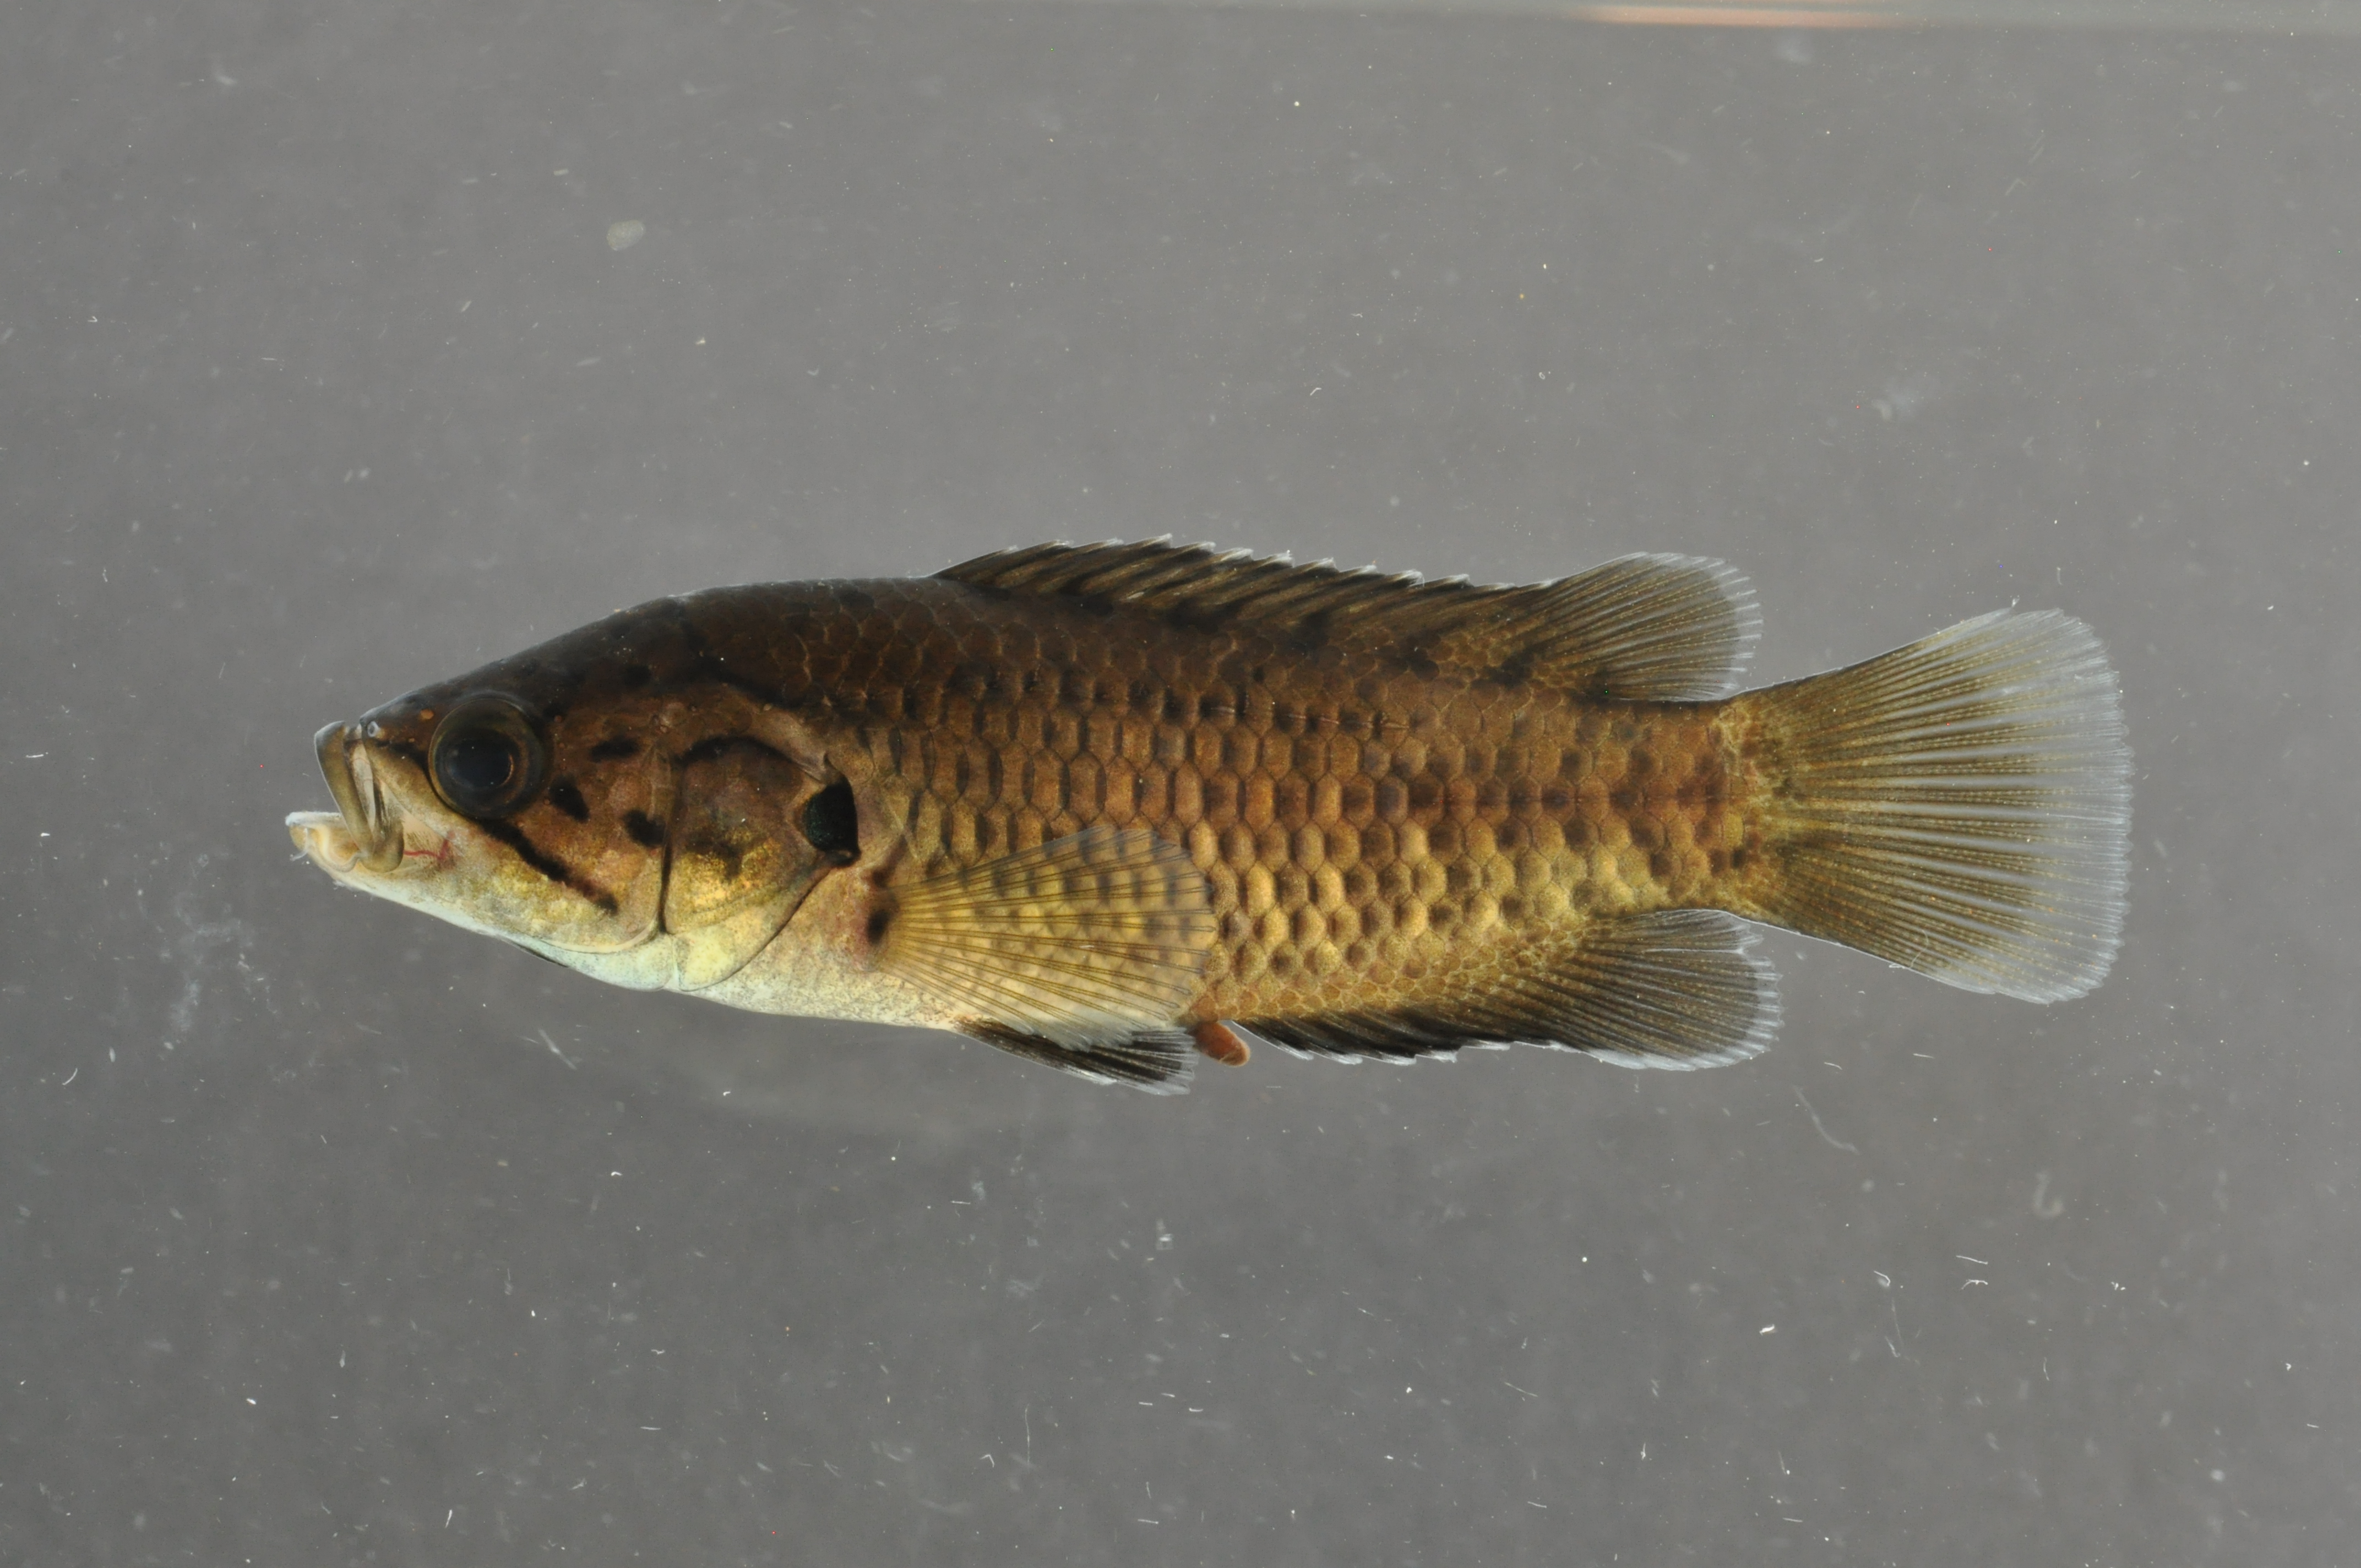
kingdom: Animalia
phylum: Chordata
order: Perciformes
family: Anabantidae
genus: Sandelia
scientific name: Sandelia capensis
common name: Cape kurper
